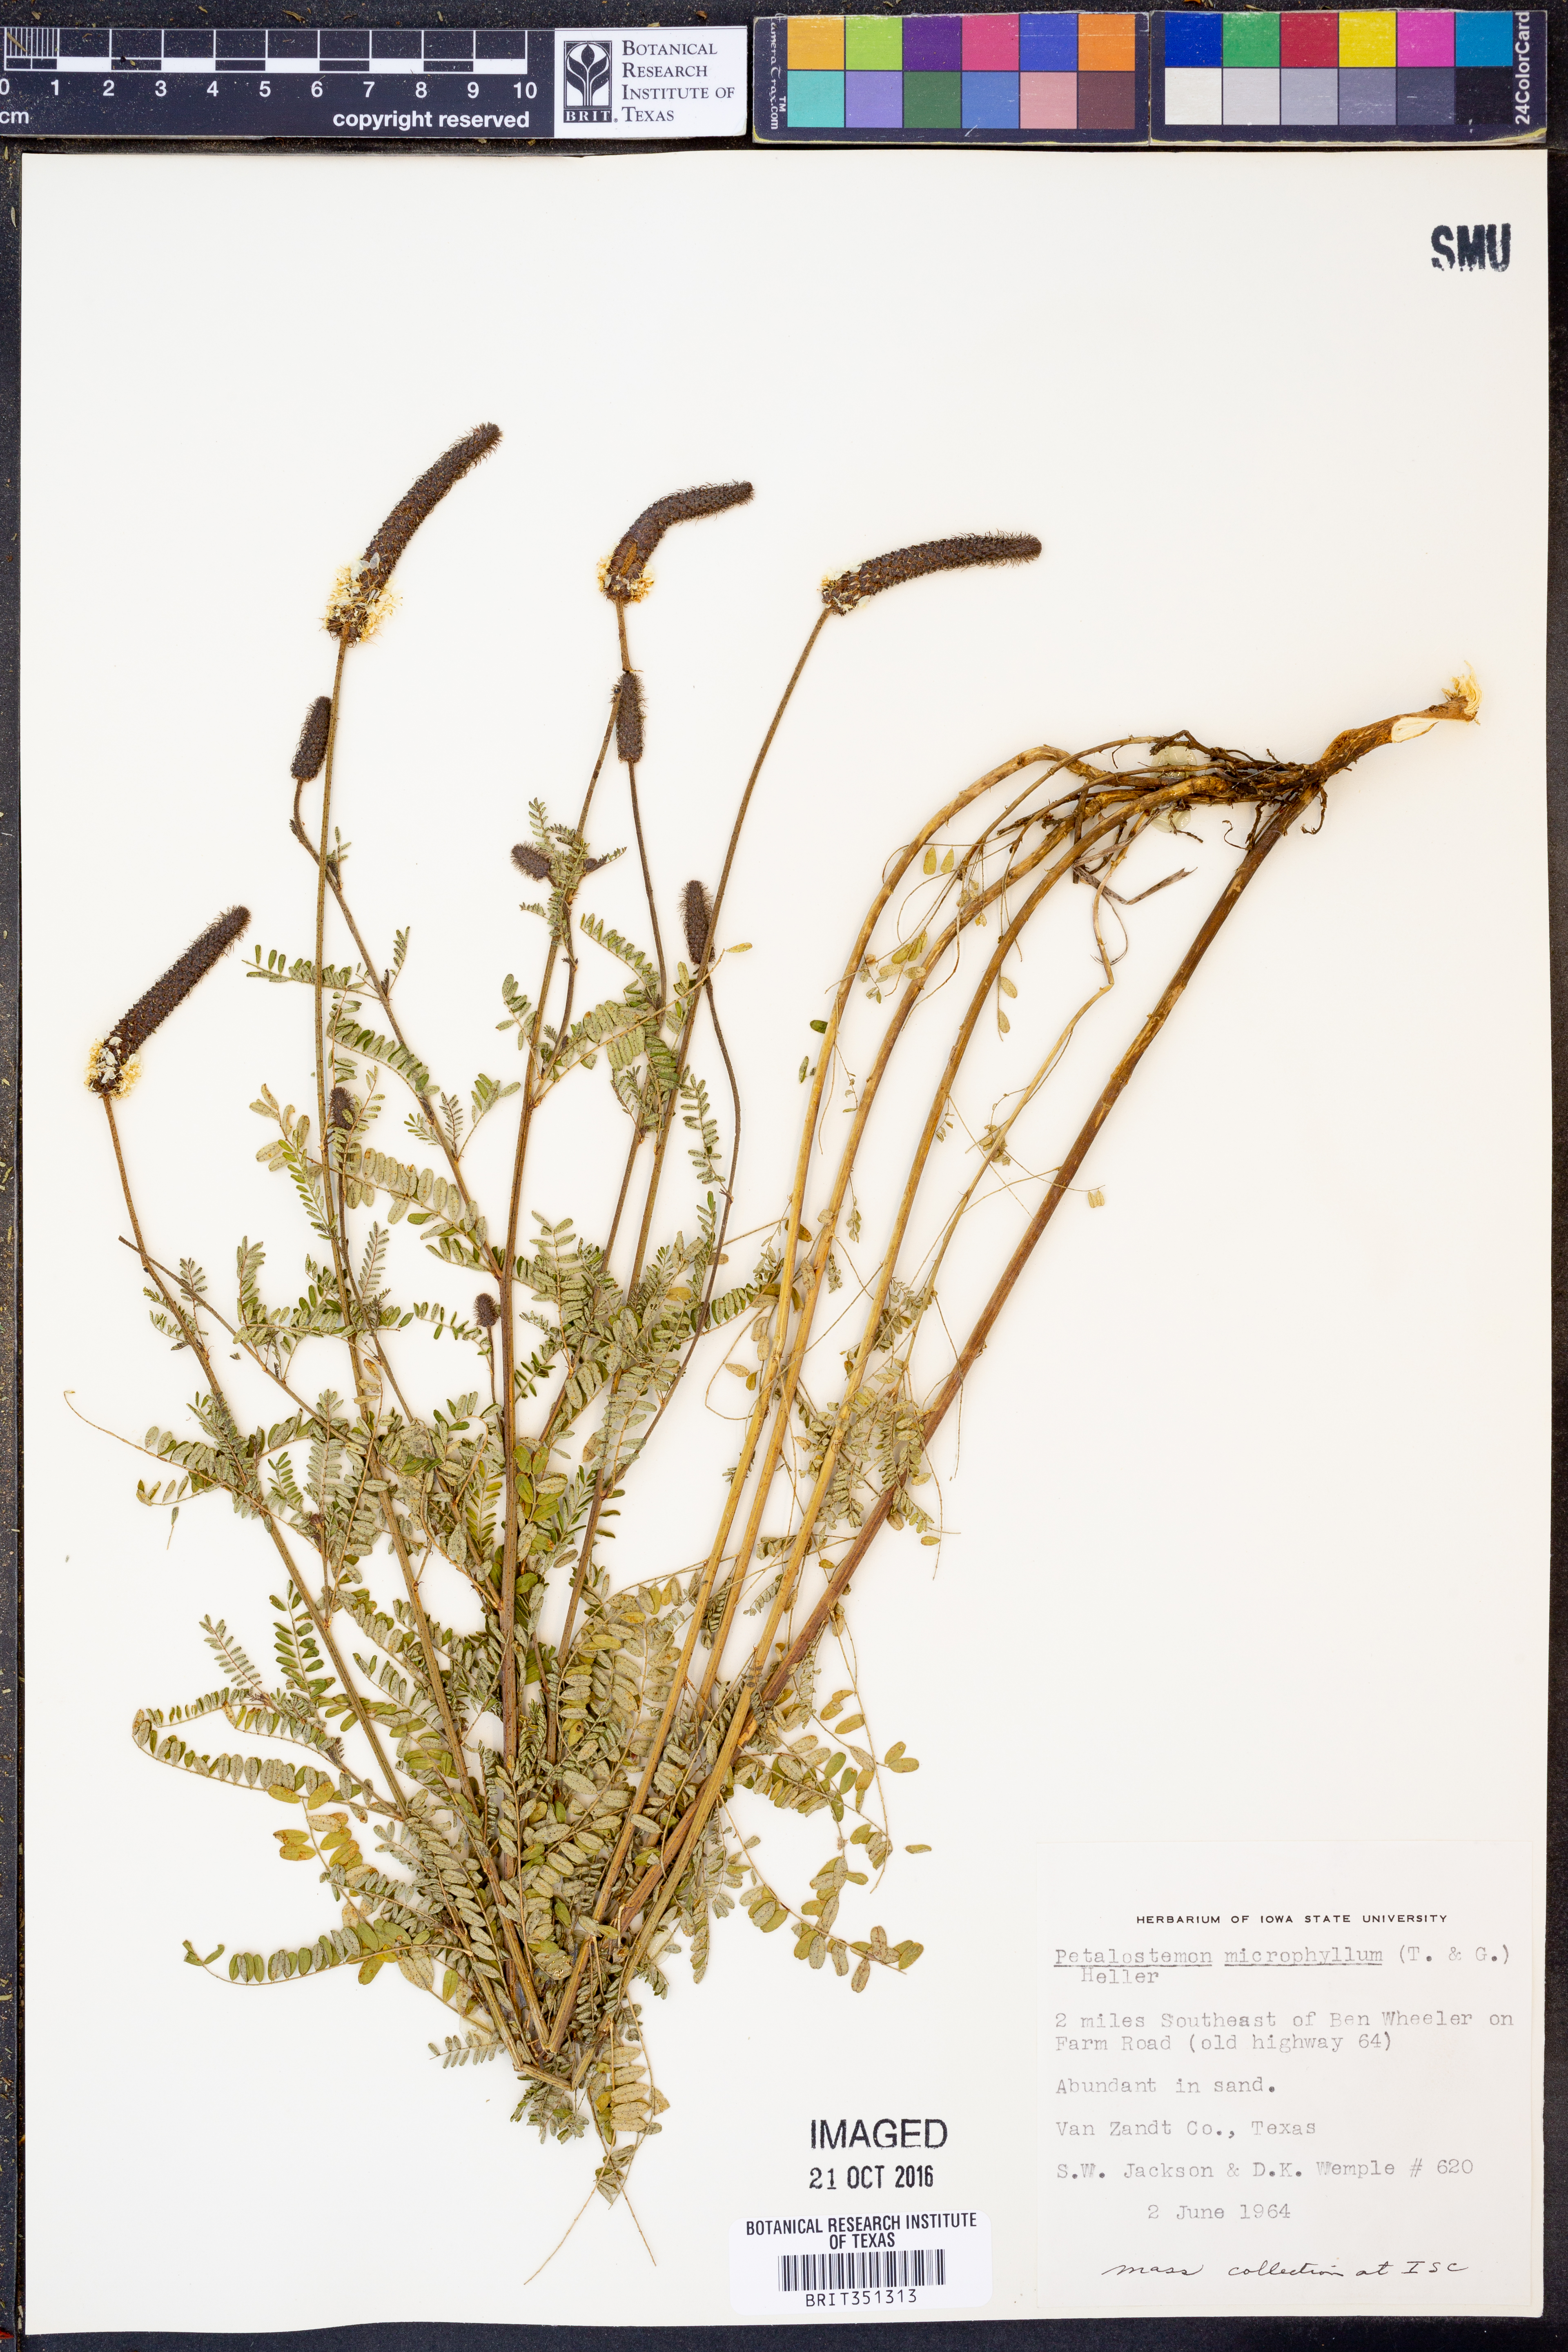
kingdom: Plantae
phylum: Tracheophyta
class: Magnoliopsida
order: Fabales
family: Fabaceae
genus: Dalea
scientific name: Dalea drummondiana
